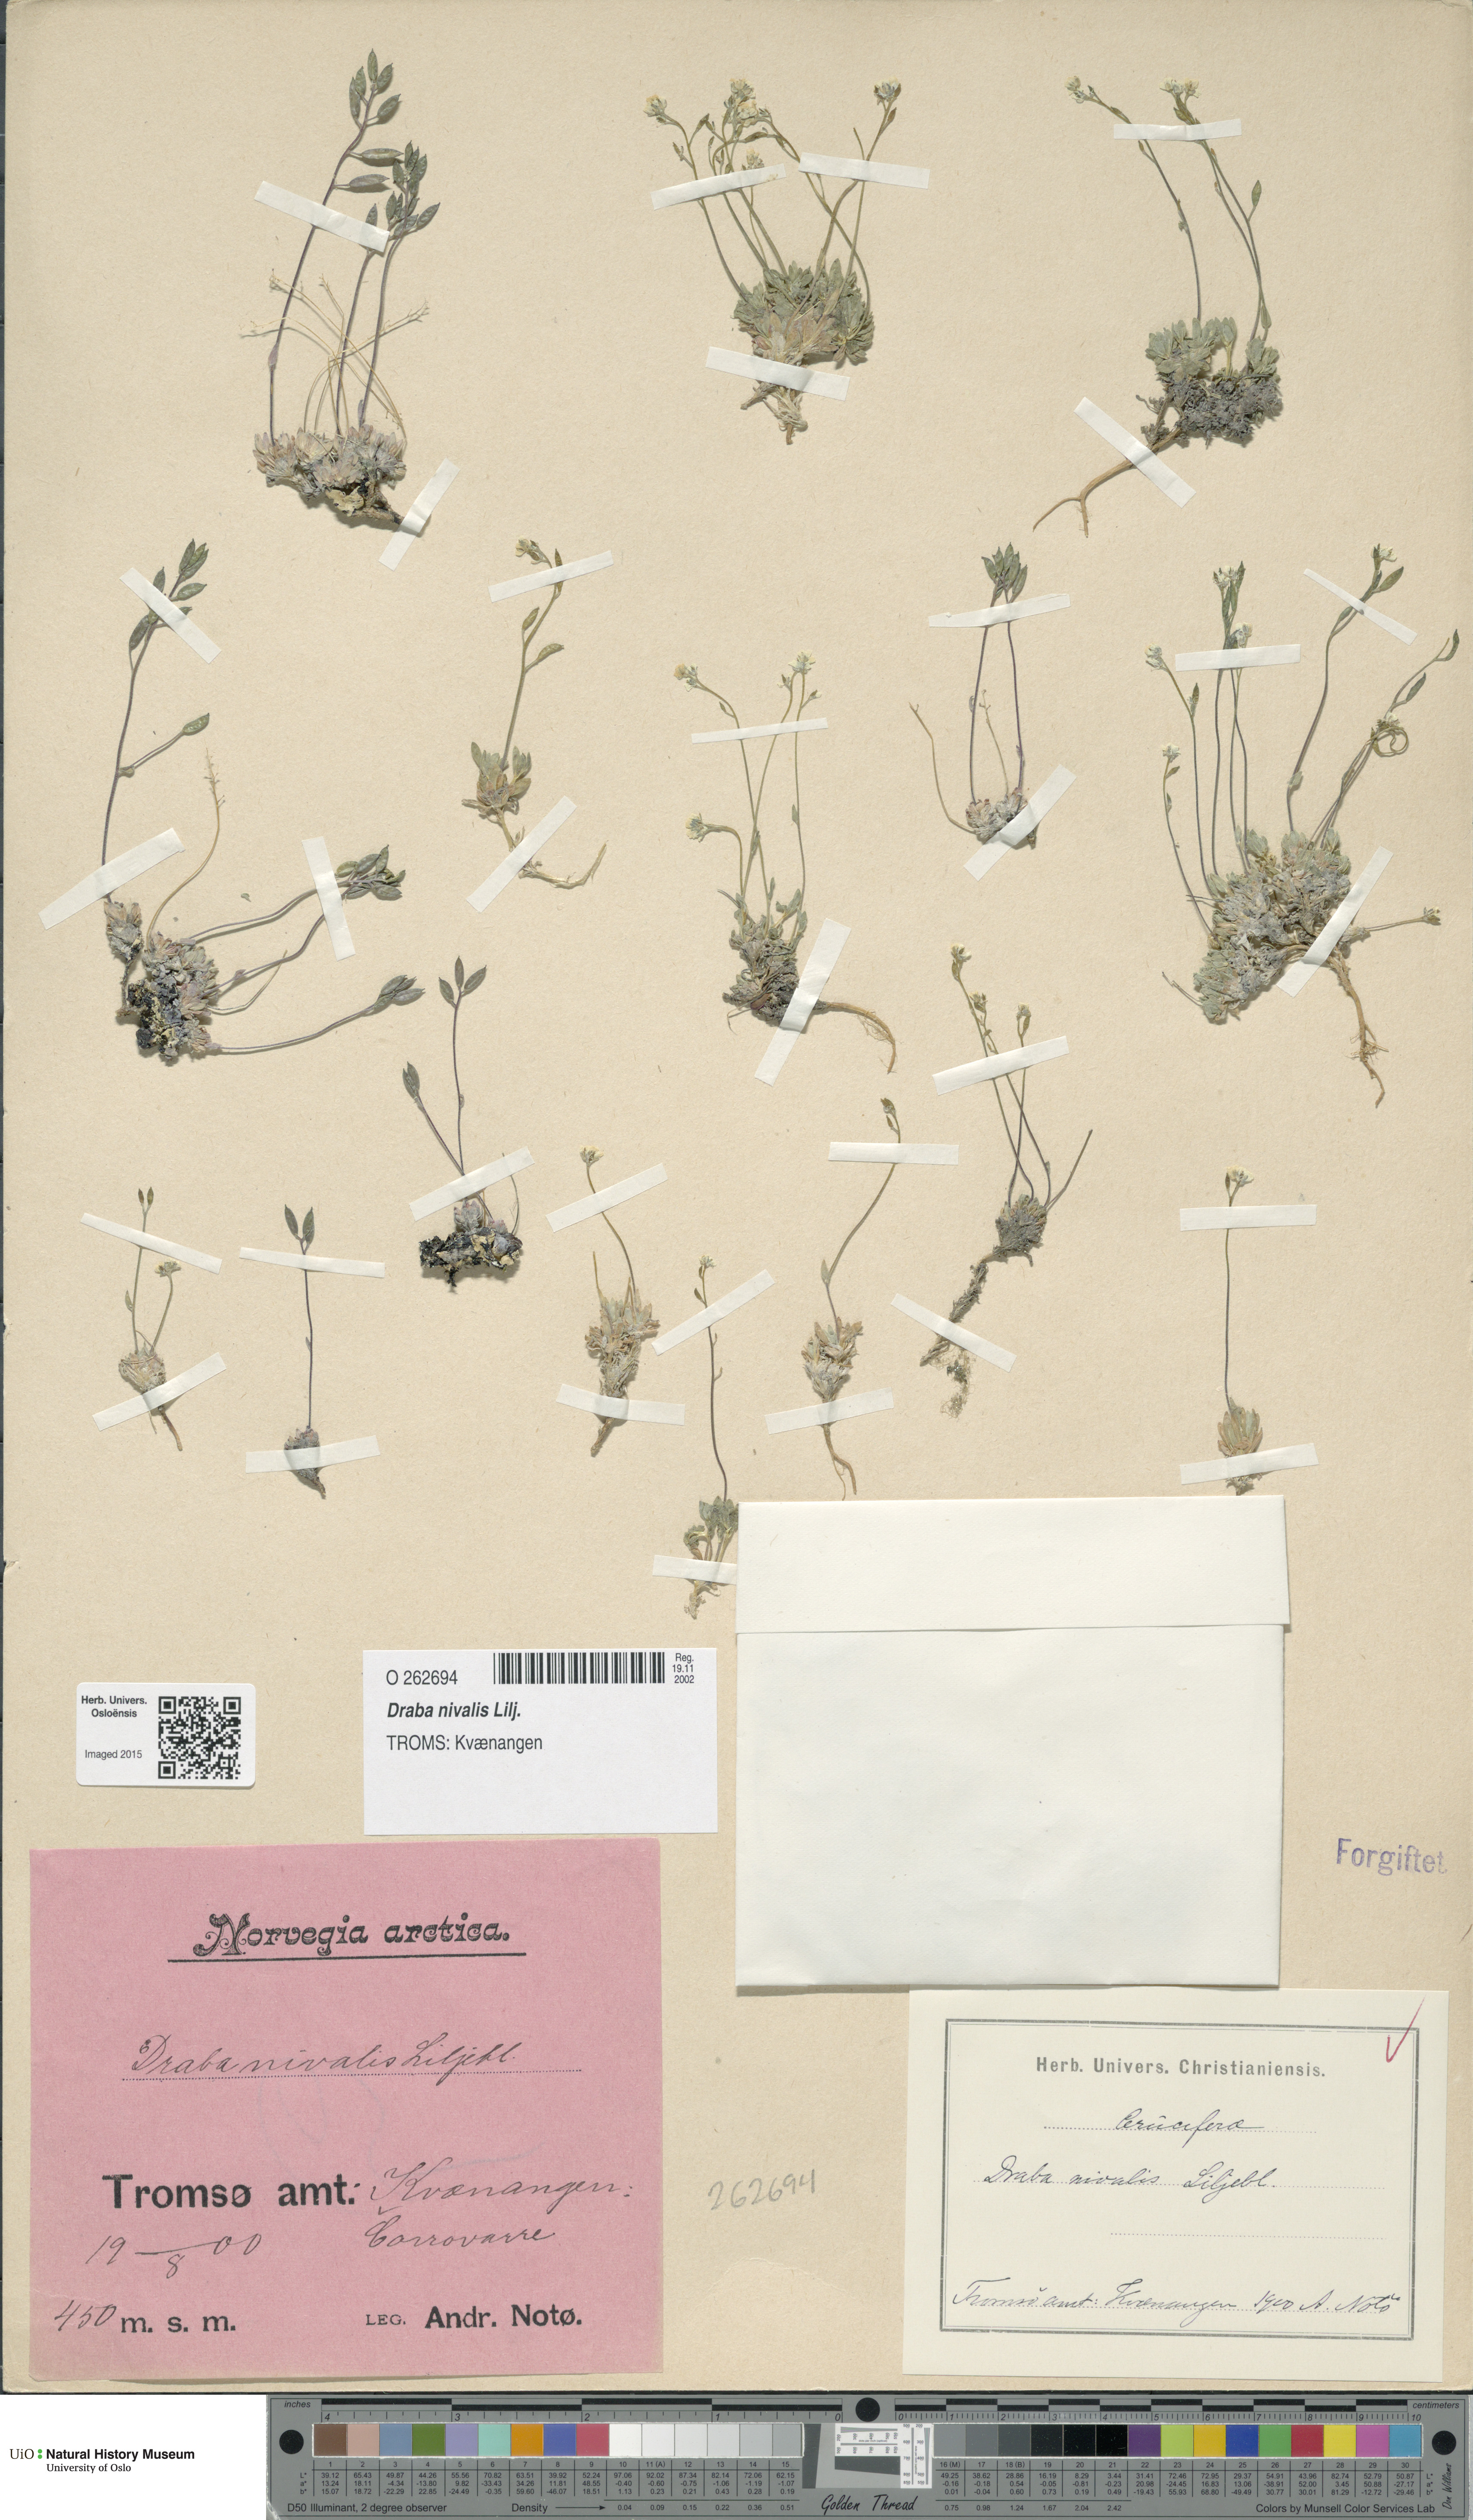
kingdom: Plantae
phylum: Tracheophyta
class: Magnoliopsida
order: Brassicales
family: Brassicaceae
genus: Draba
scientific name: Draba nivalis
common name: Snow draba
